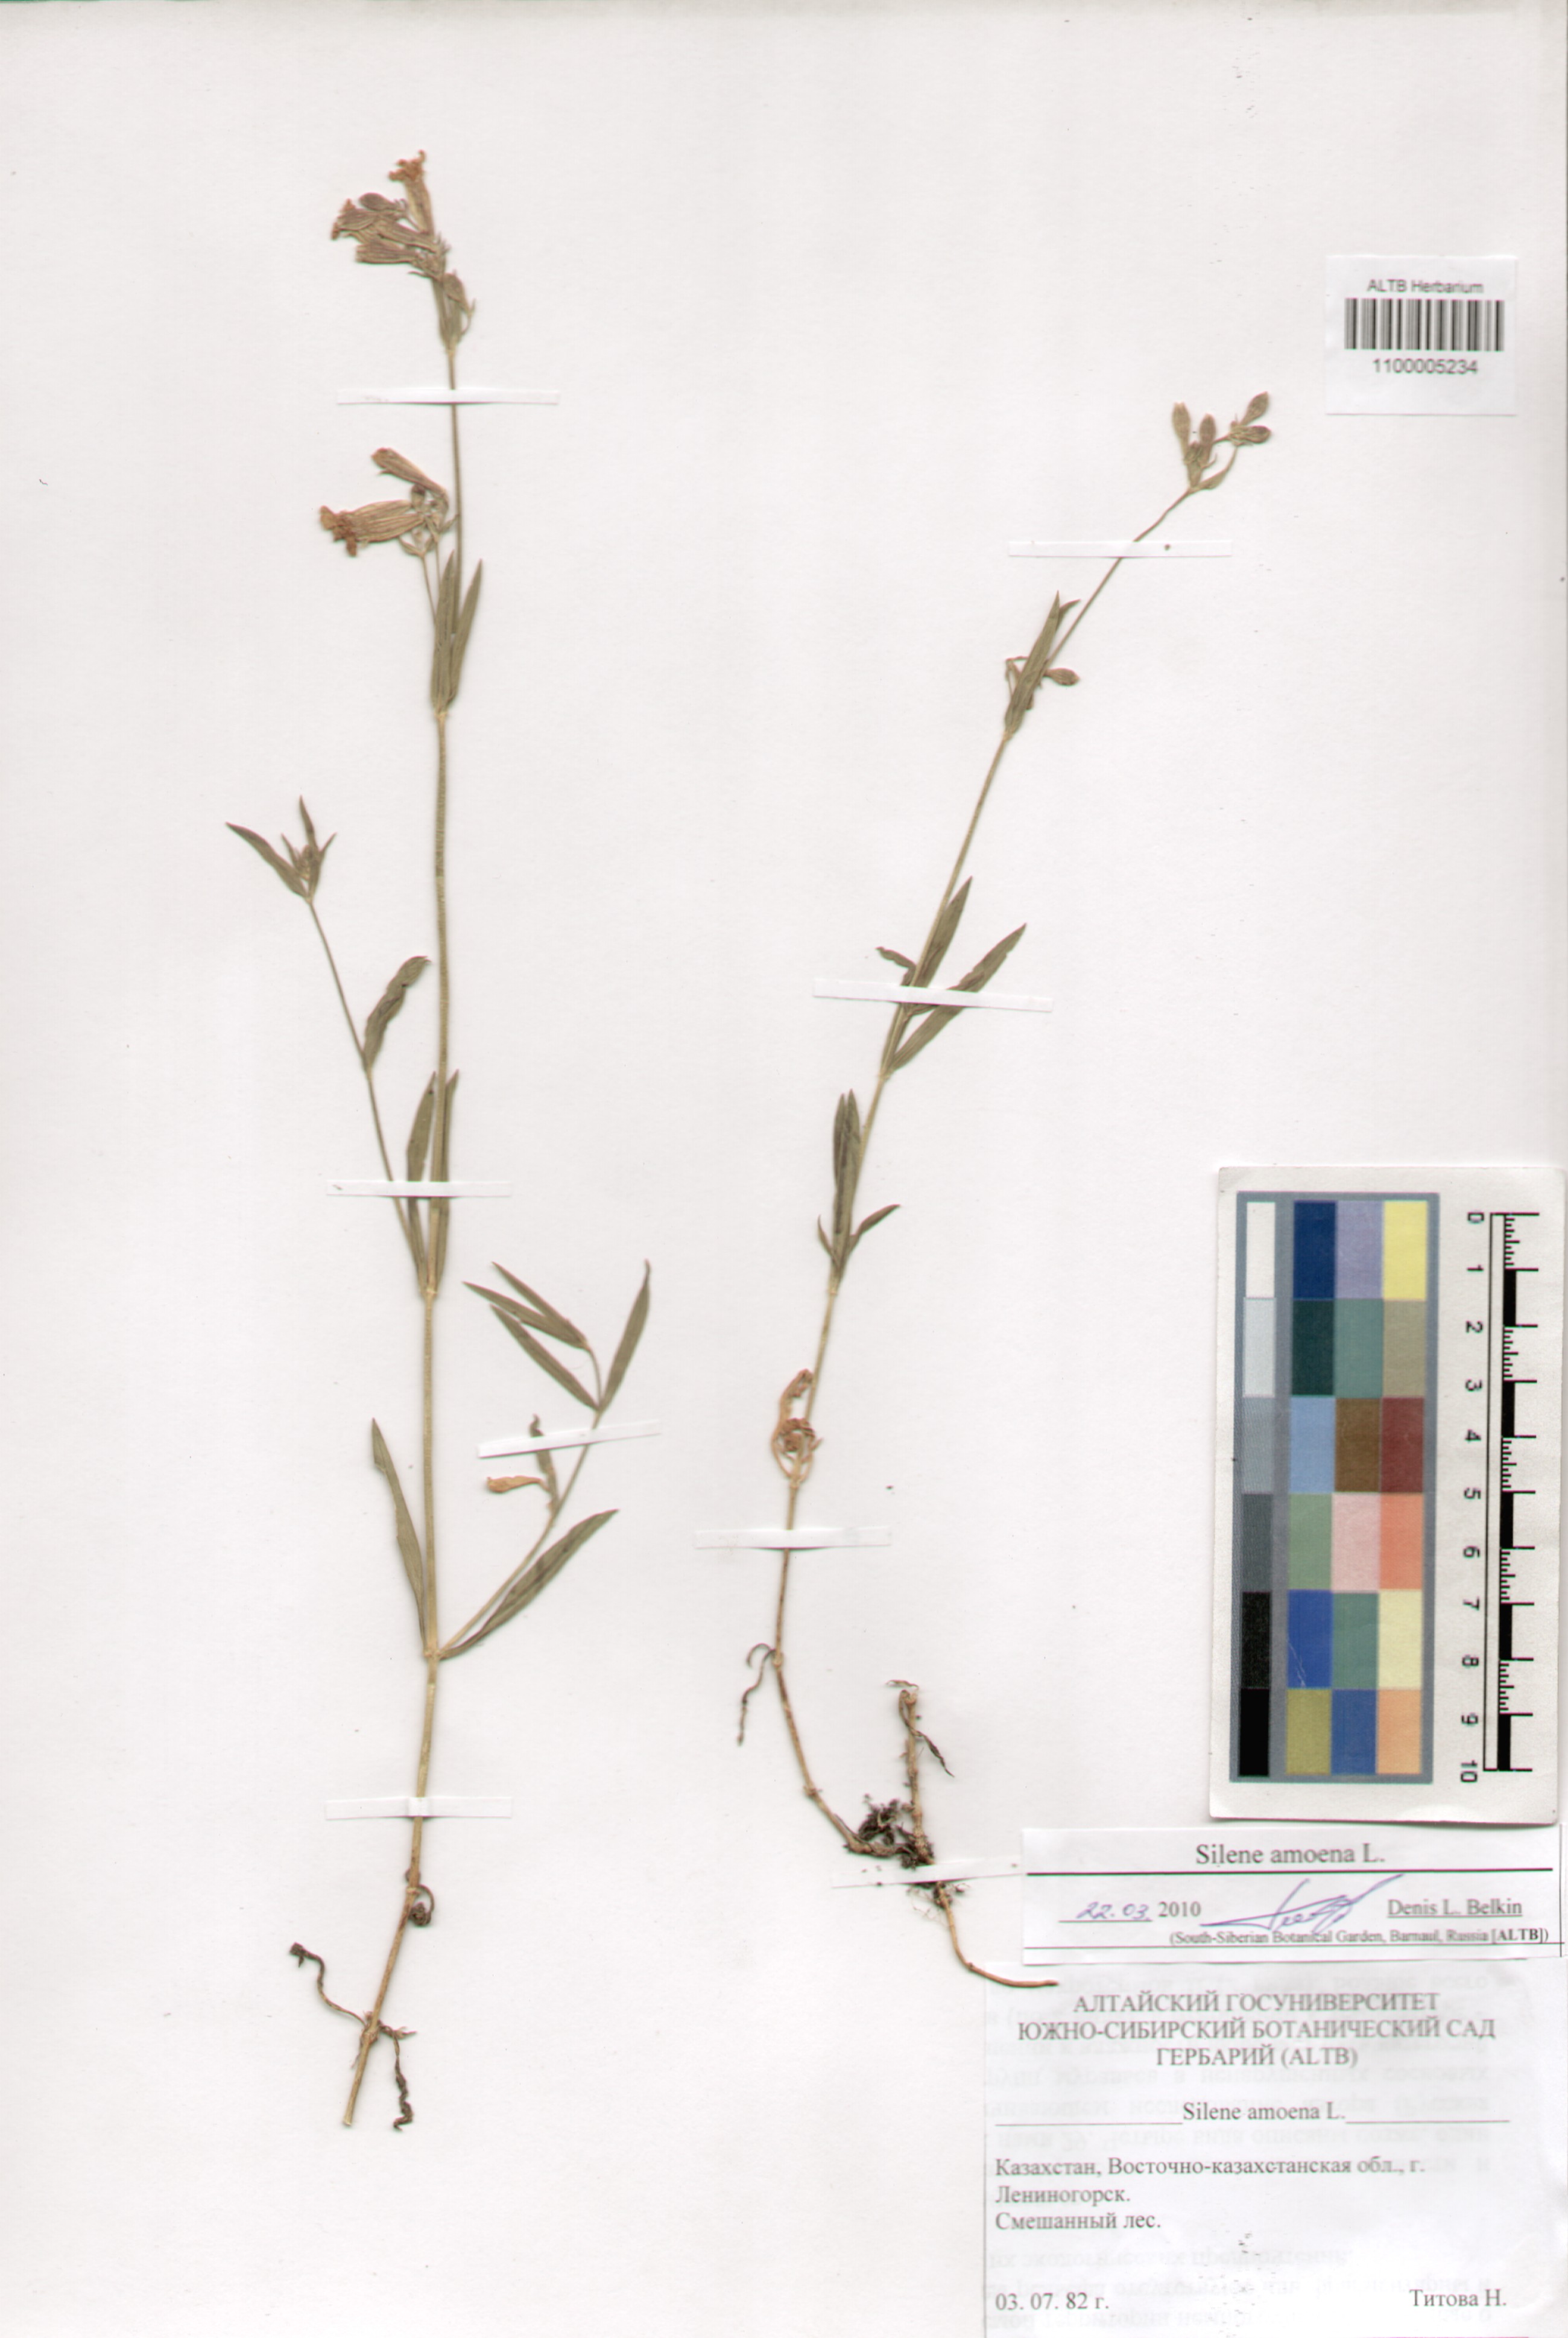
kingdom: Plantae
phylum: Tracheophyta
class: Magnoliopsida
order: Caryophyllales
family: Caryophyllaceae
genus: Silene
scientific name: Silene amoena
